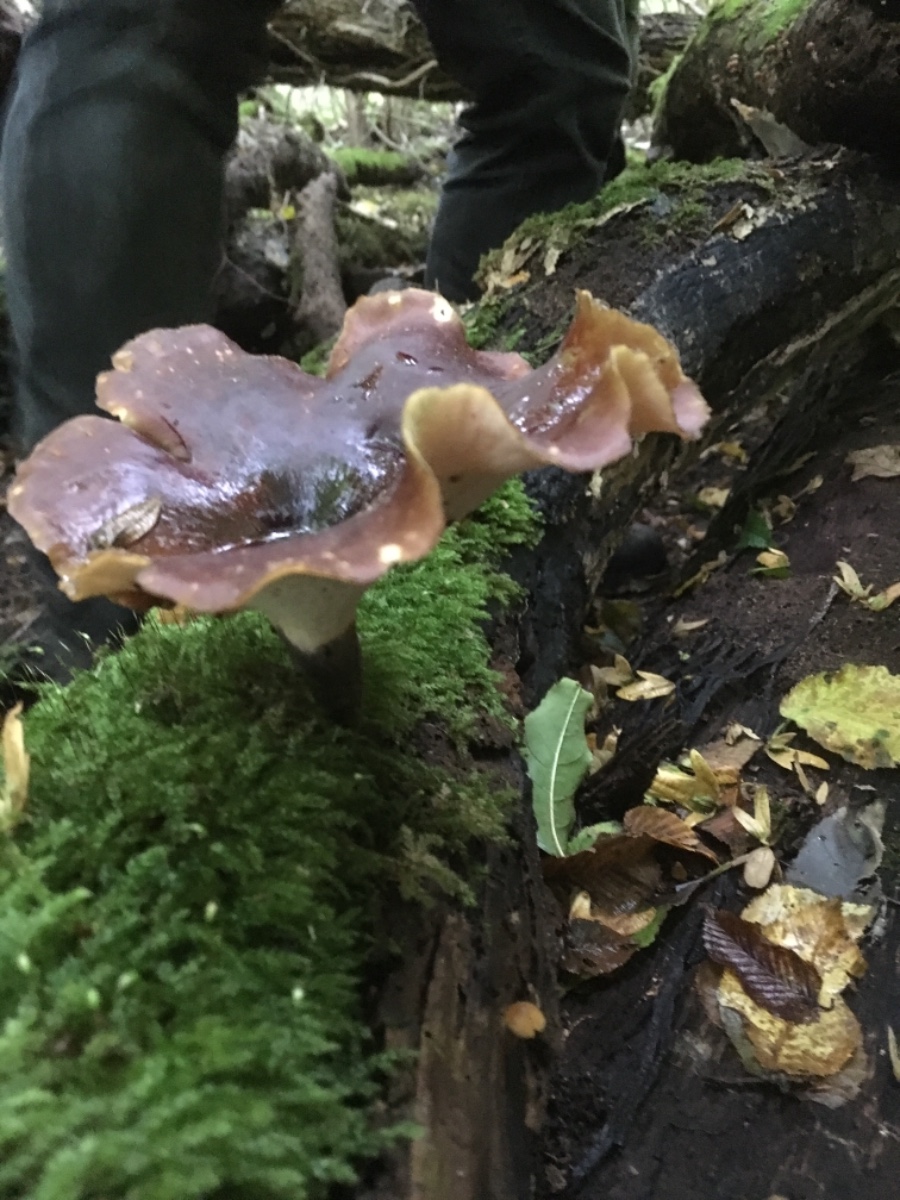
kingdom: Fungi
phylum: Basidiomycota
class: Agaricomycetes
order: Polyporales
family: Polyporaceae
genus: Picipes
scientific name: Picipes badius
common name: kastaniebrun stilkporesvamp
